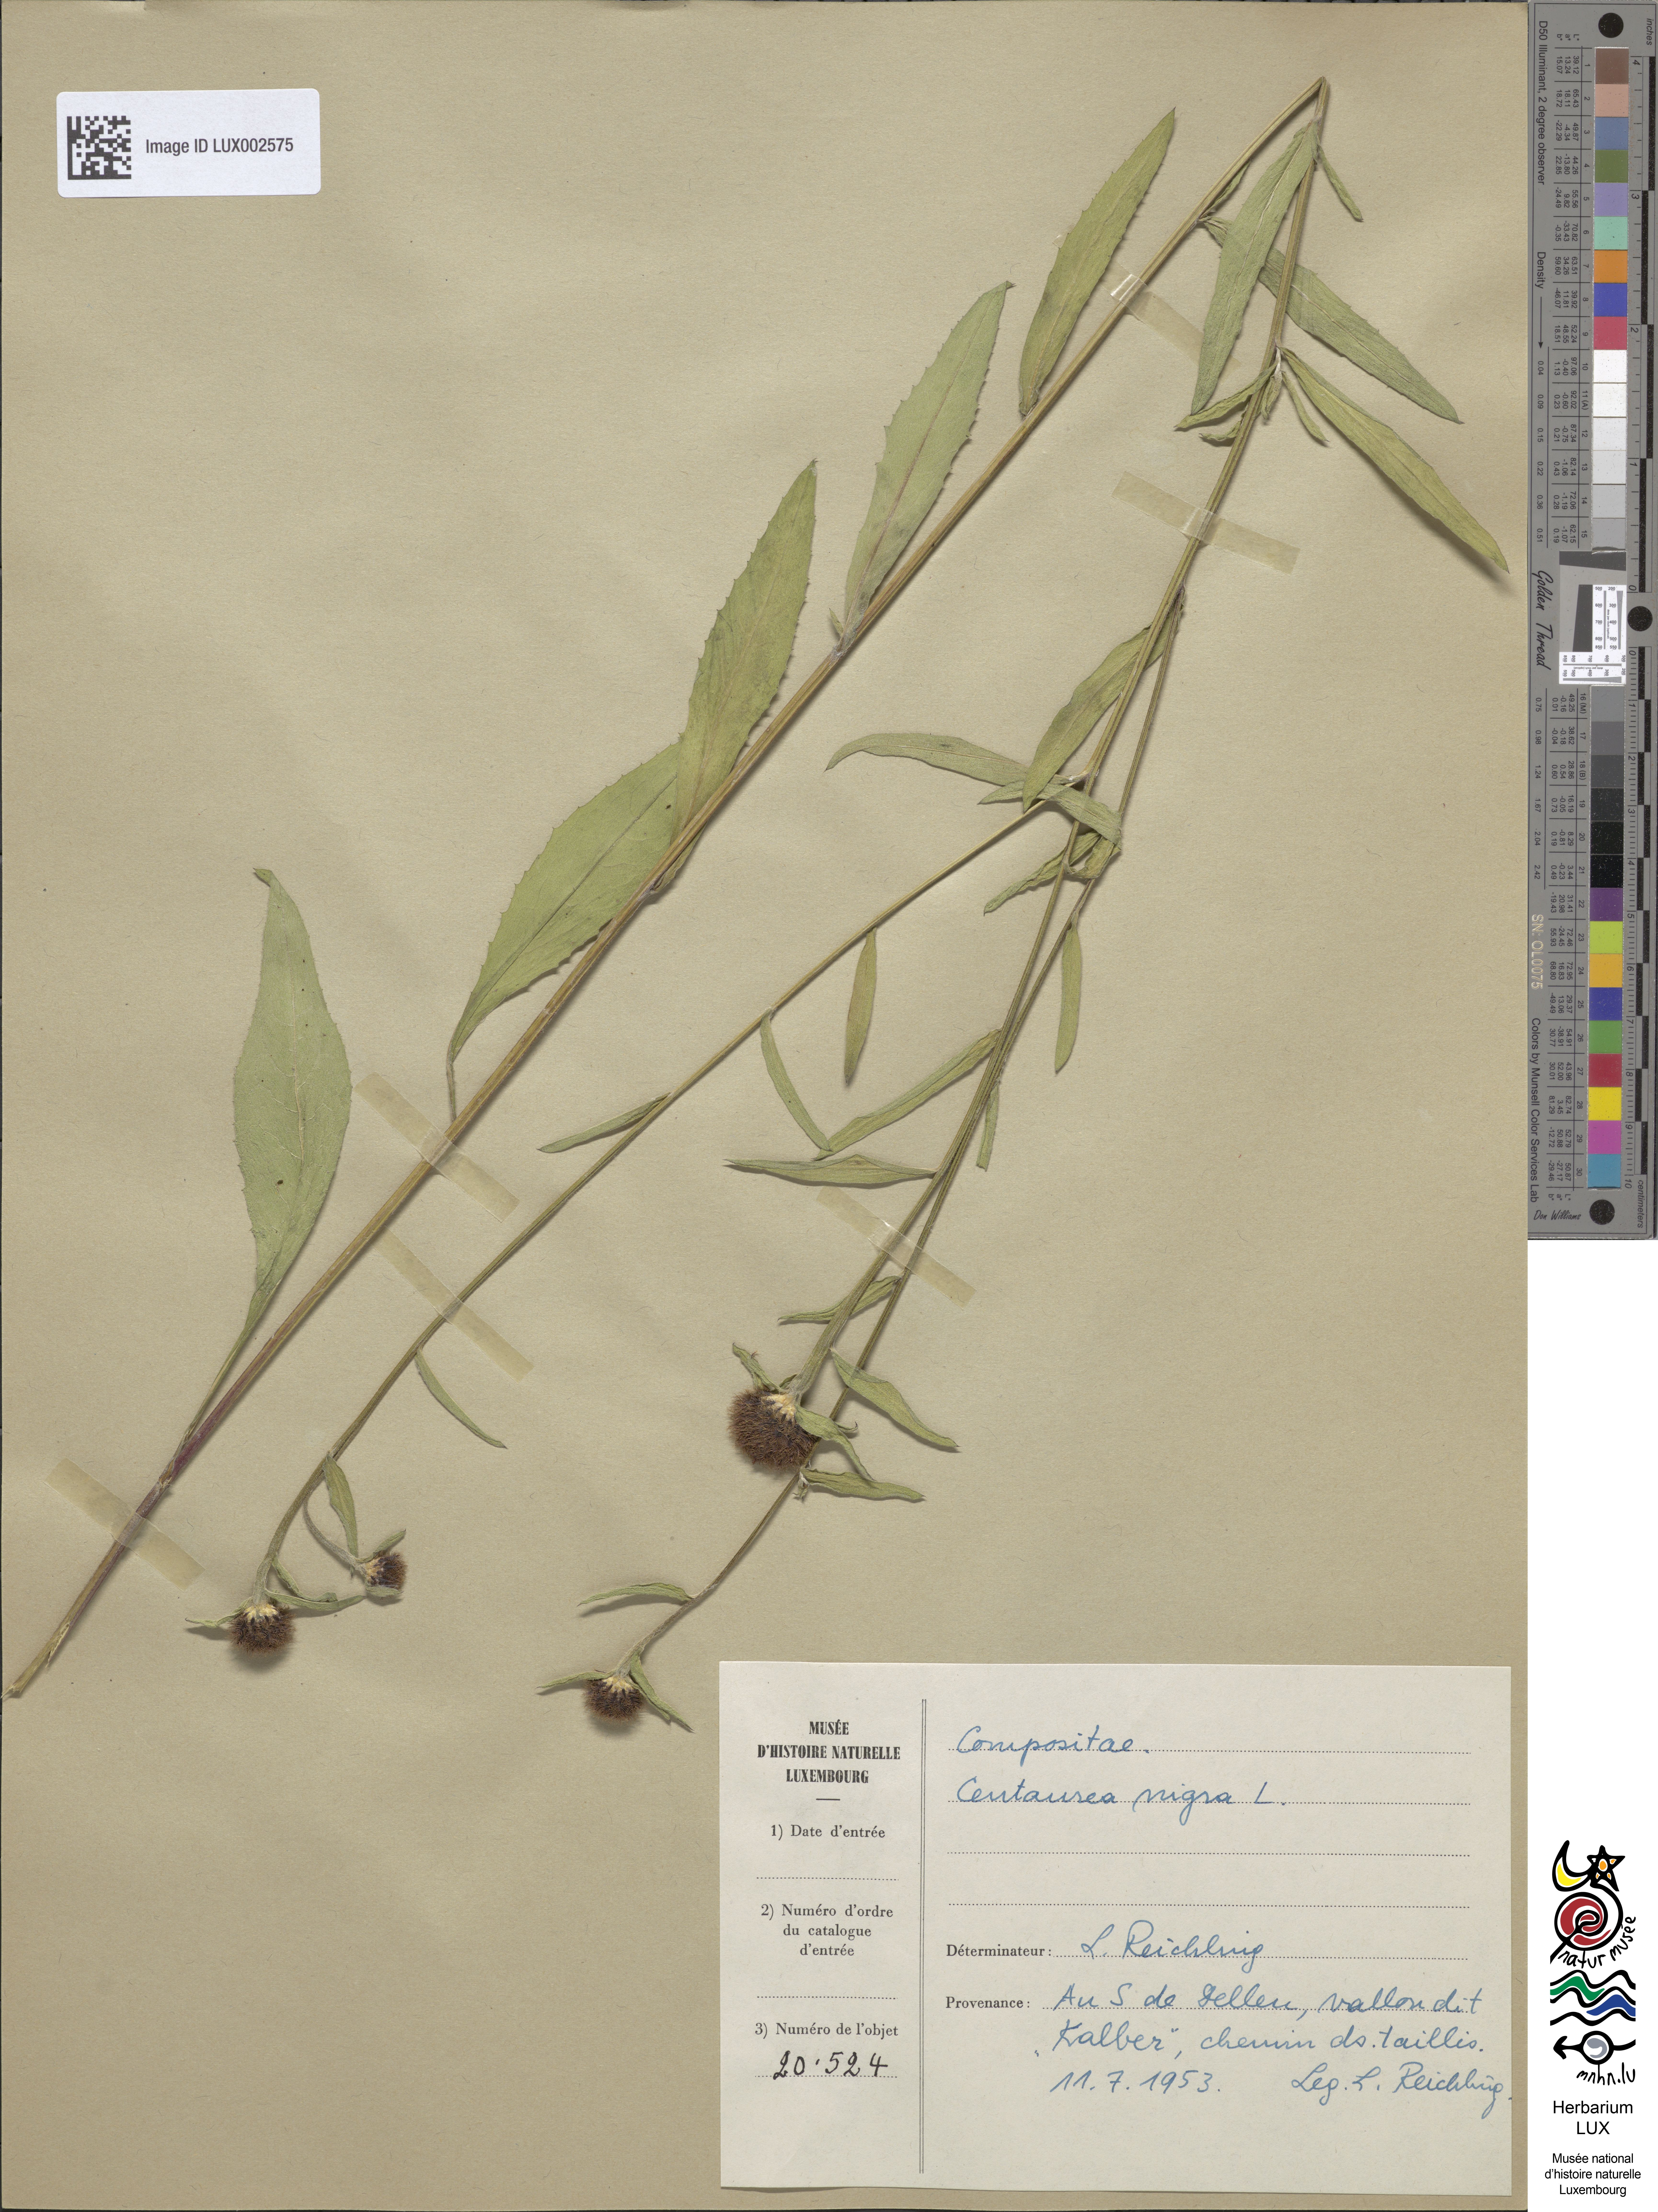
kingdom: Plantae
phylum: Tracheophyta
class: Magnoliopsida
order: Asterales
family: Asteraceae
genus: Centaurea
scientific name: Centaurea nigra
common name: Lesser knapweed
